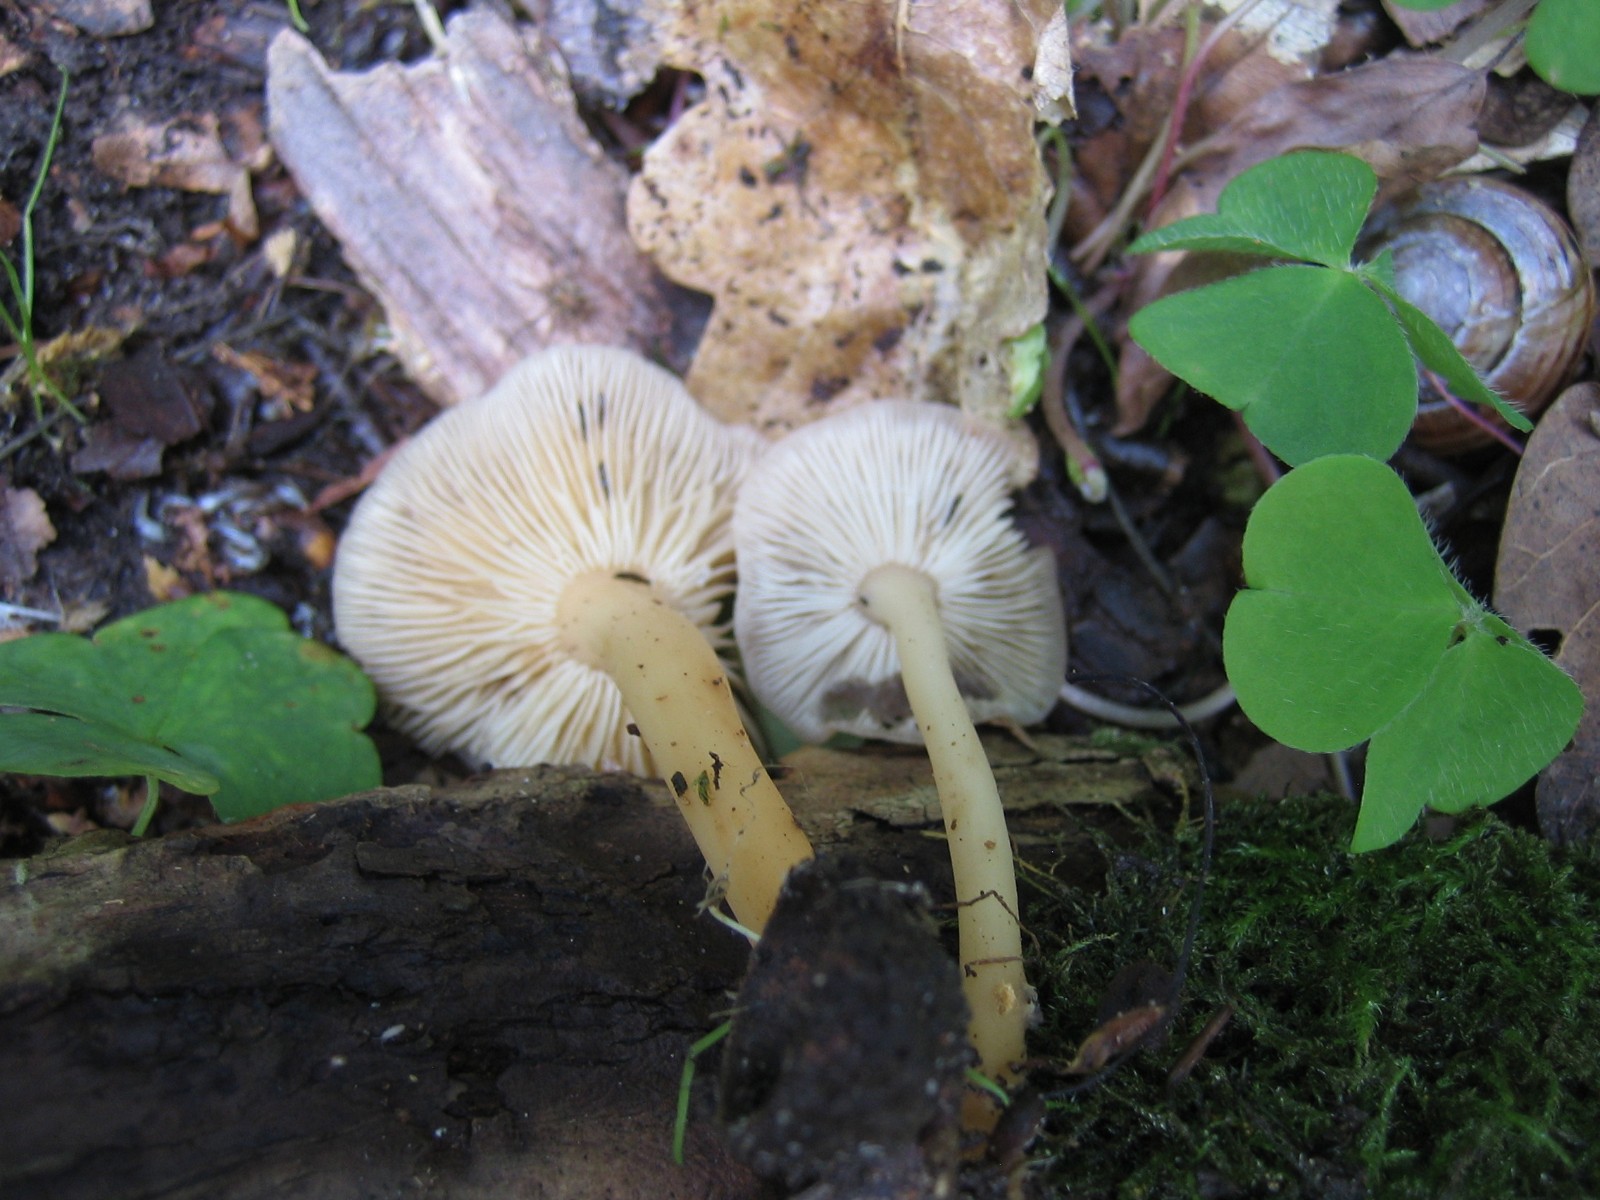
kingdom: Fungi
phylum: Basidiomycota
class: Agaricomycetes
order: Agaricales
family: Omphalotaceae
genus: Gymnopus
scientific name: Gymnopus dryophilus
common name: løv-fladhat
